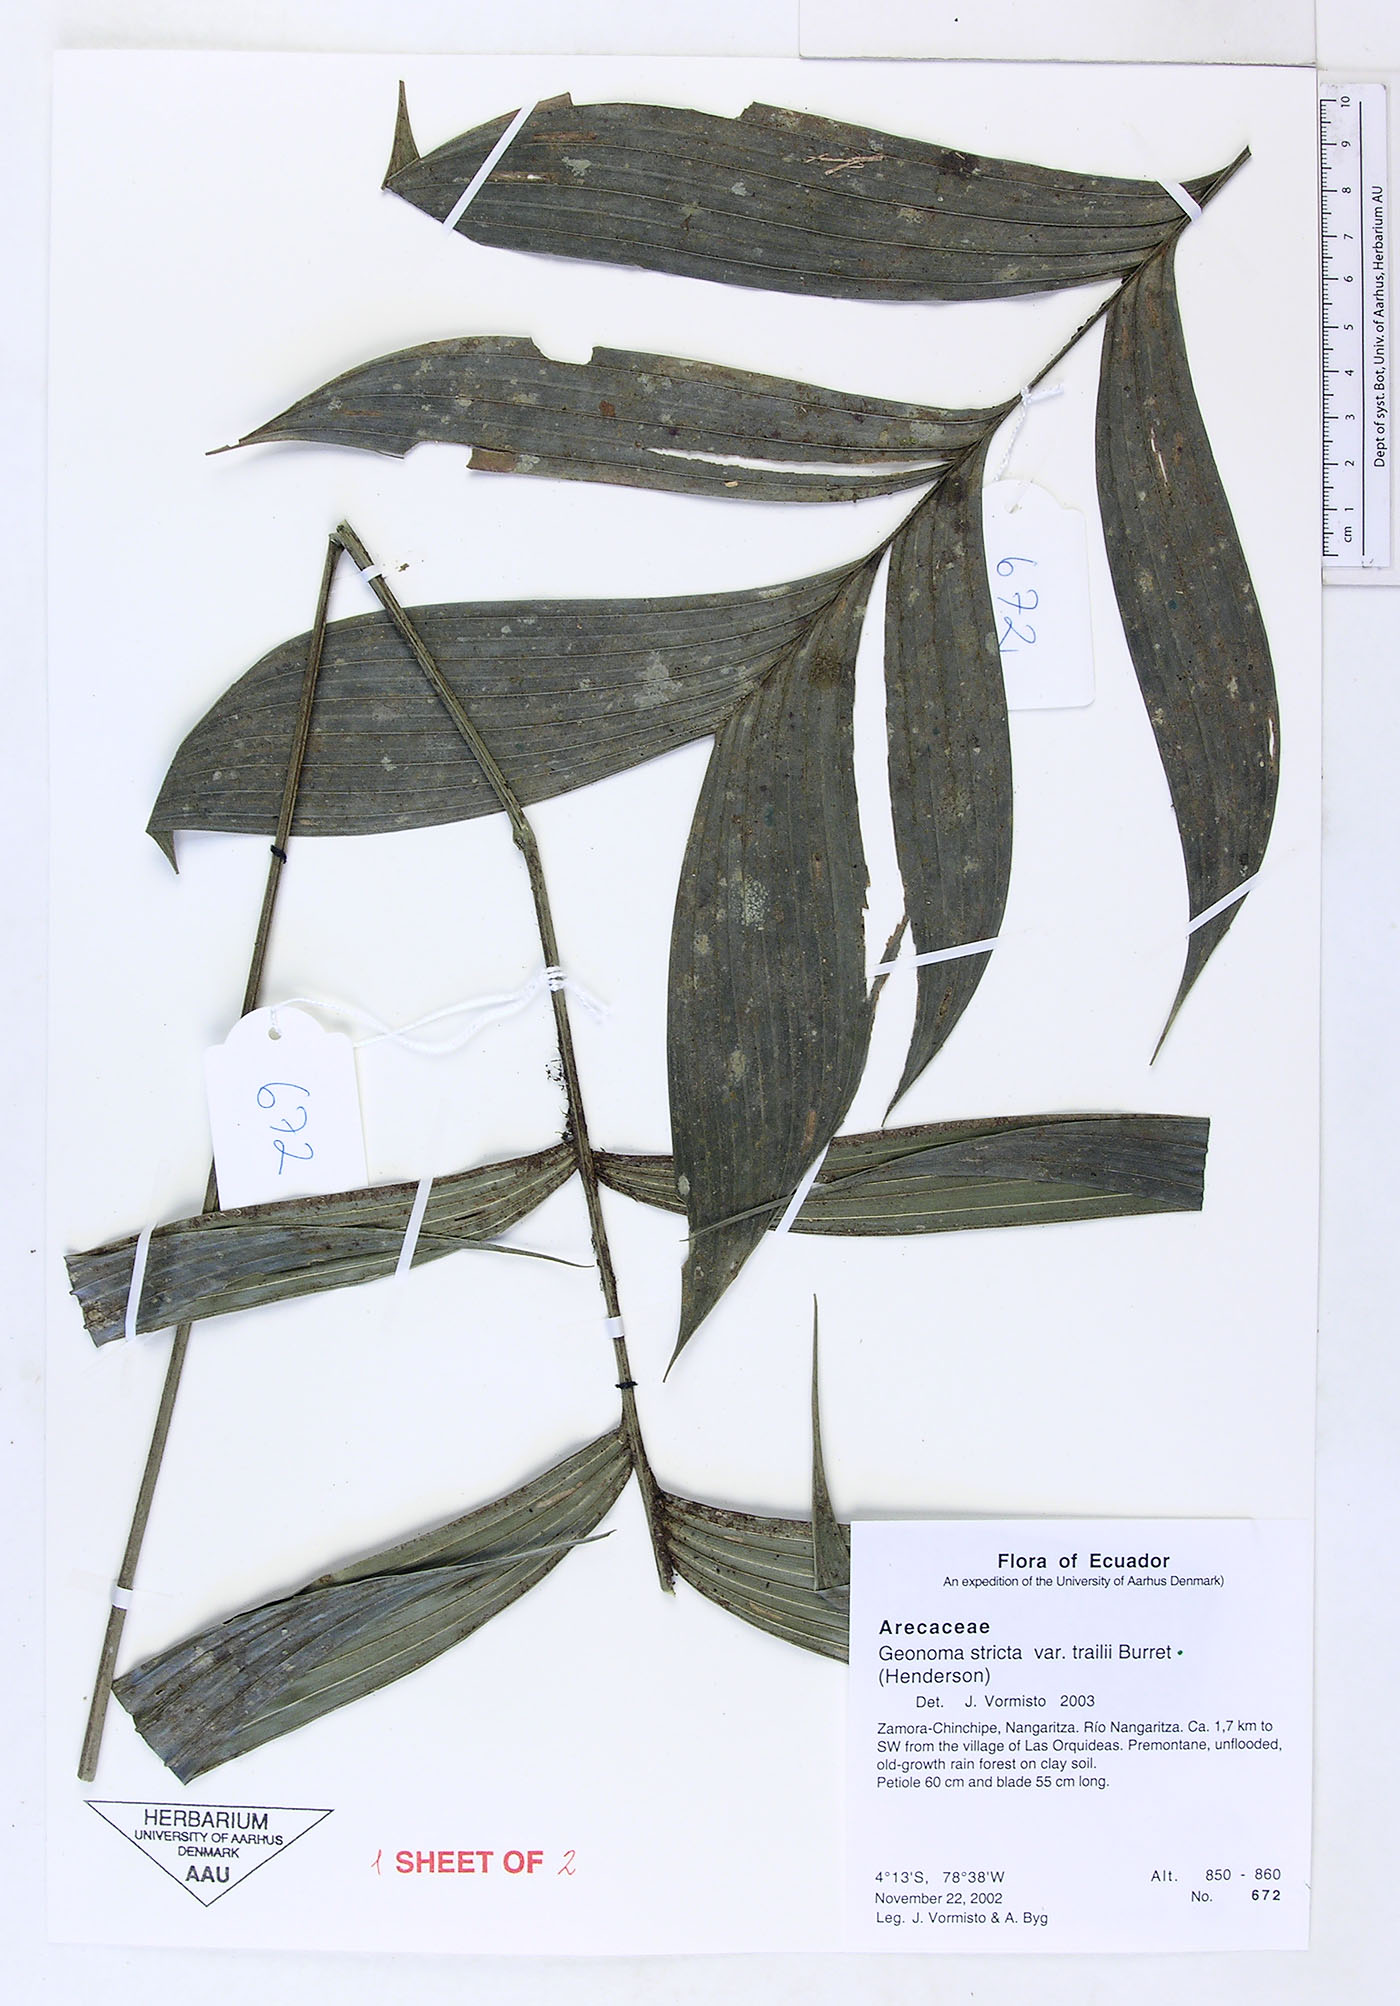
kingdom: Plantae
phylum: Tracheophyta
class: Liliopsida
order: Arecales
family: Arecaceae
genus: Geonoma
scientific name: Geonoma stricta
